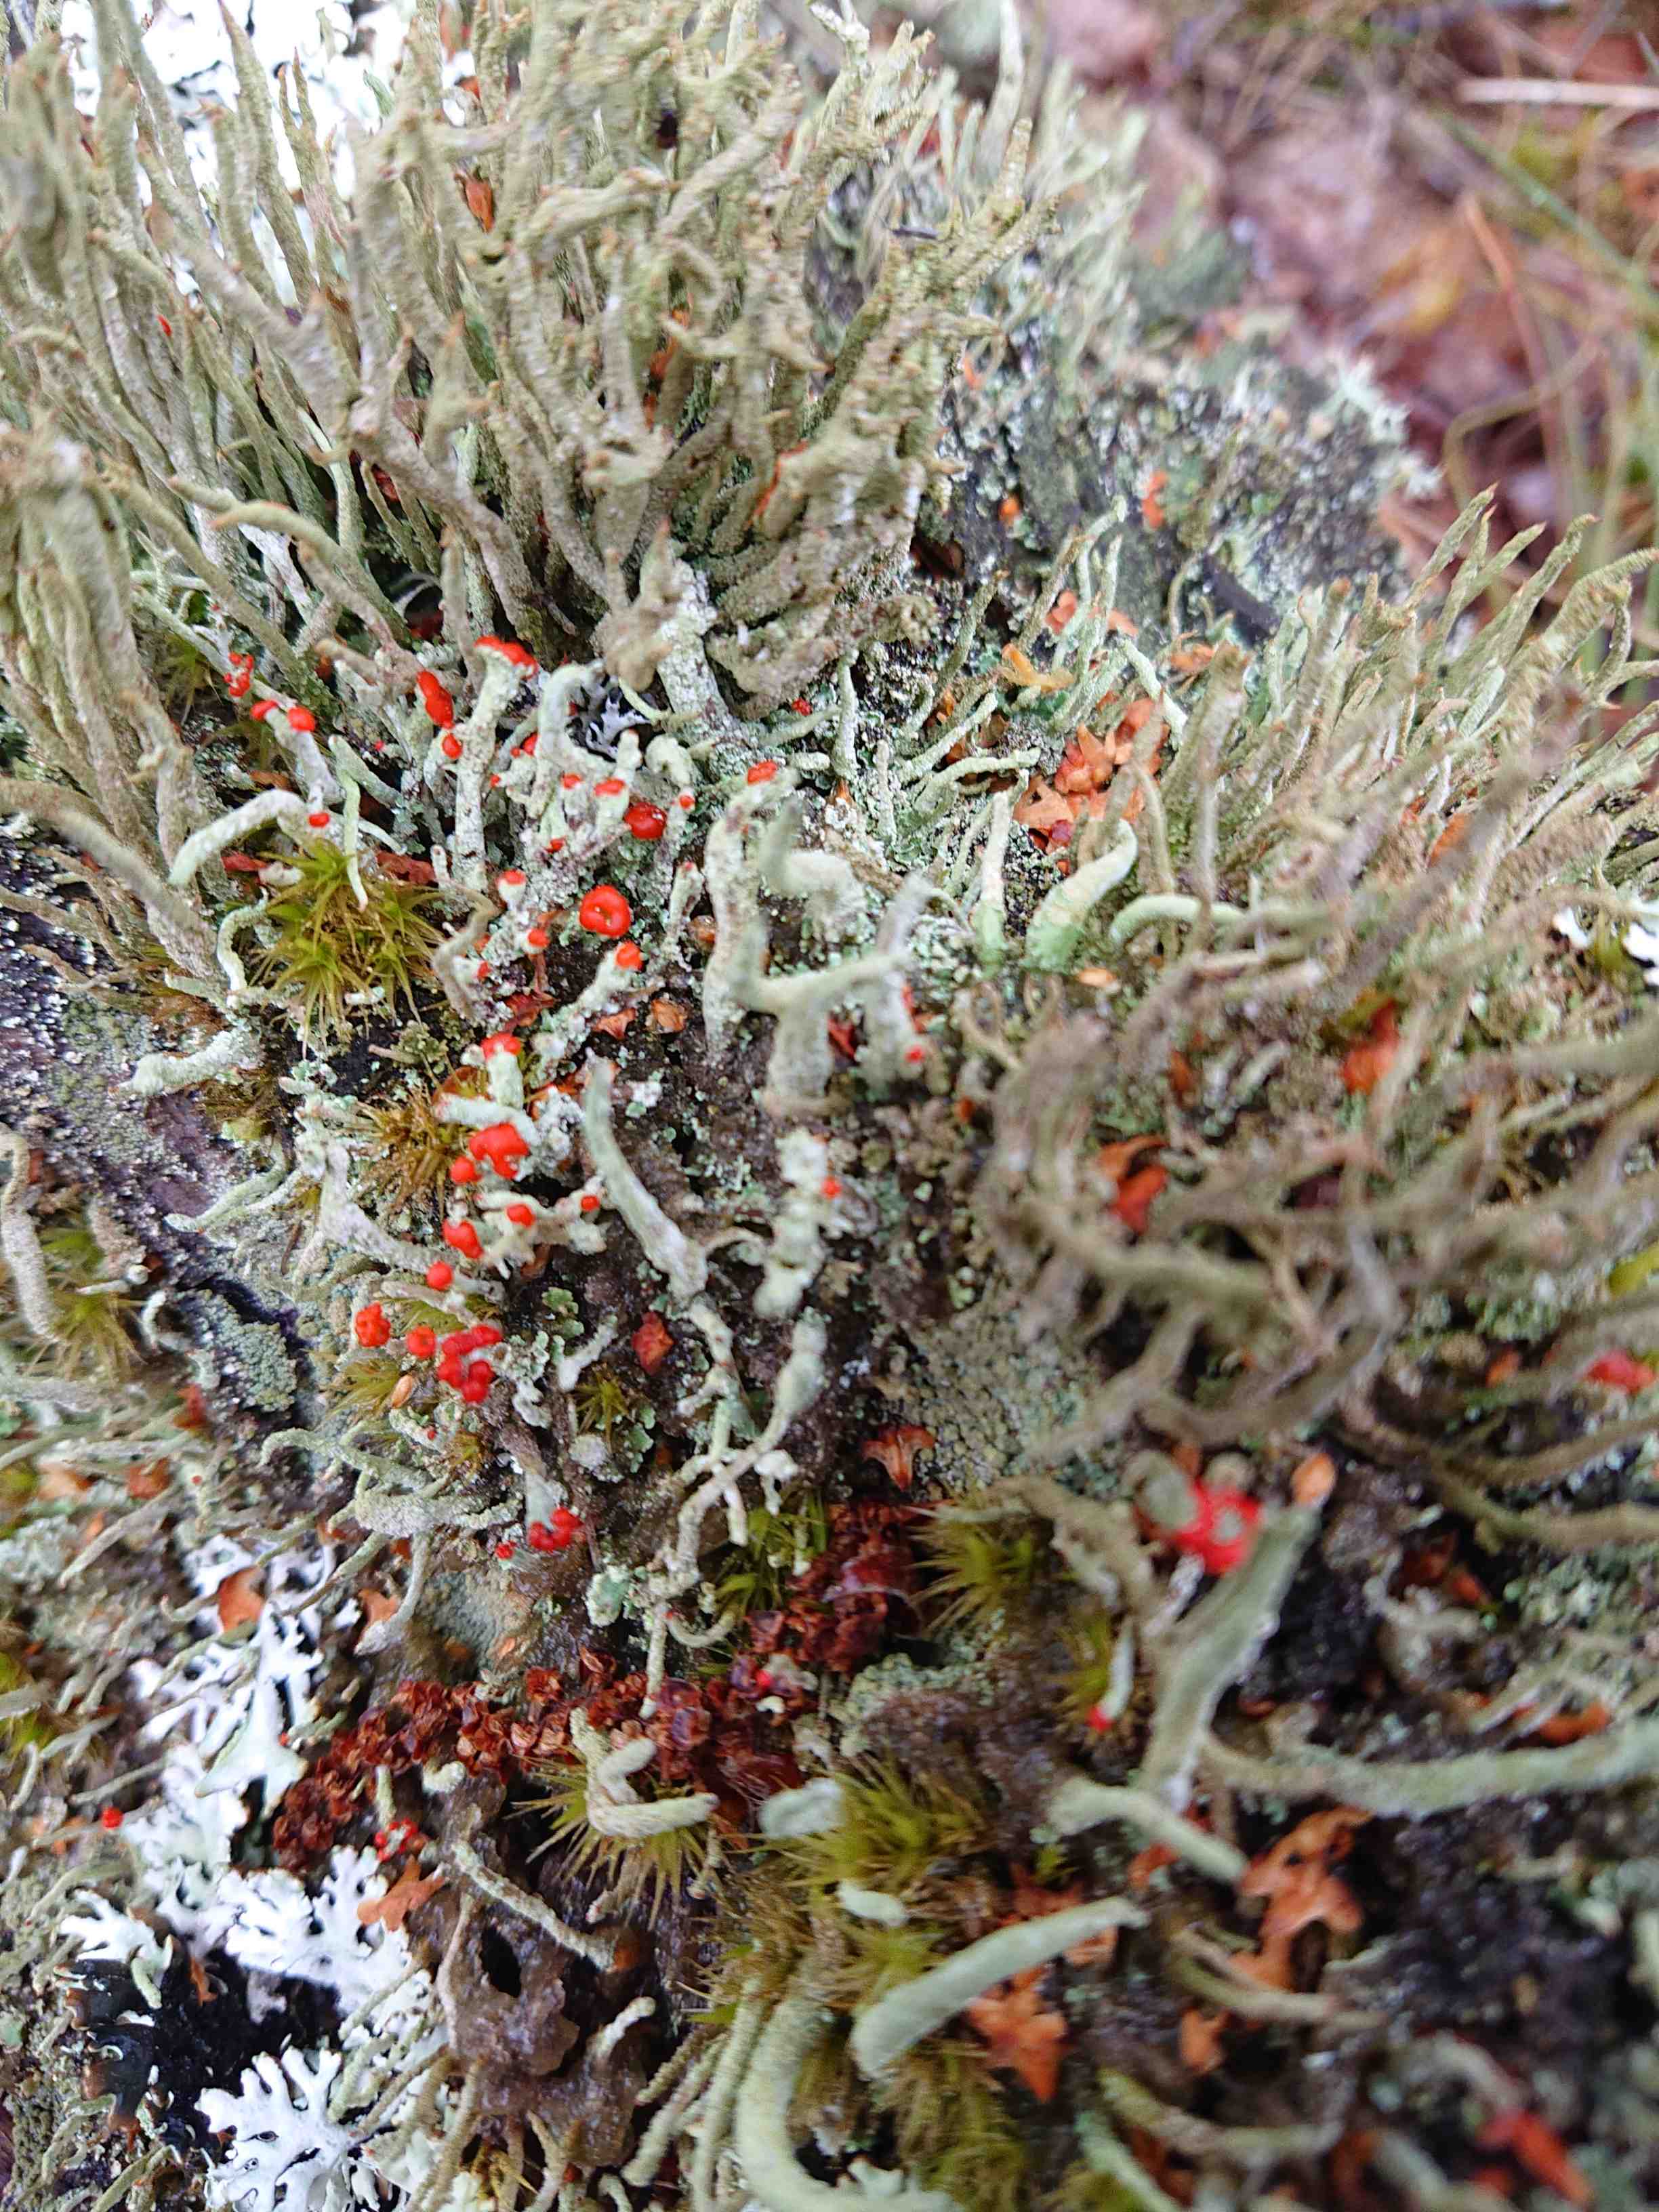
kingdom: Fungi
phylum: Ascomycota
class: Lecanoromycetes
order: Lecanorales
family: Cladoniaceae
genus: Cladonia
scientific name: Cladonia floerkeana
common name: lakrød bægerlav
